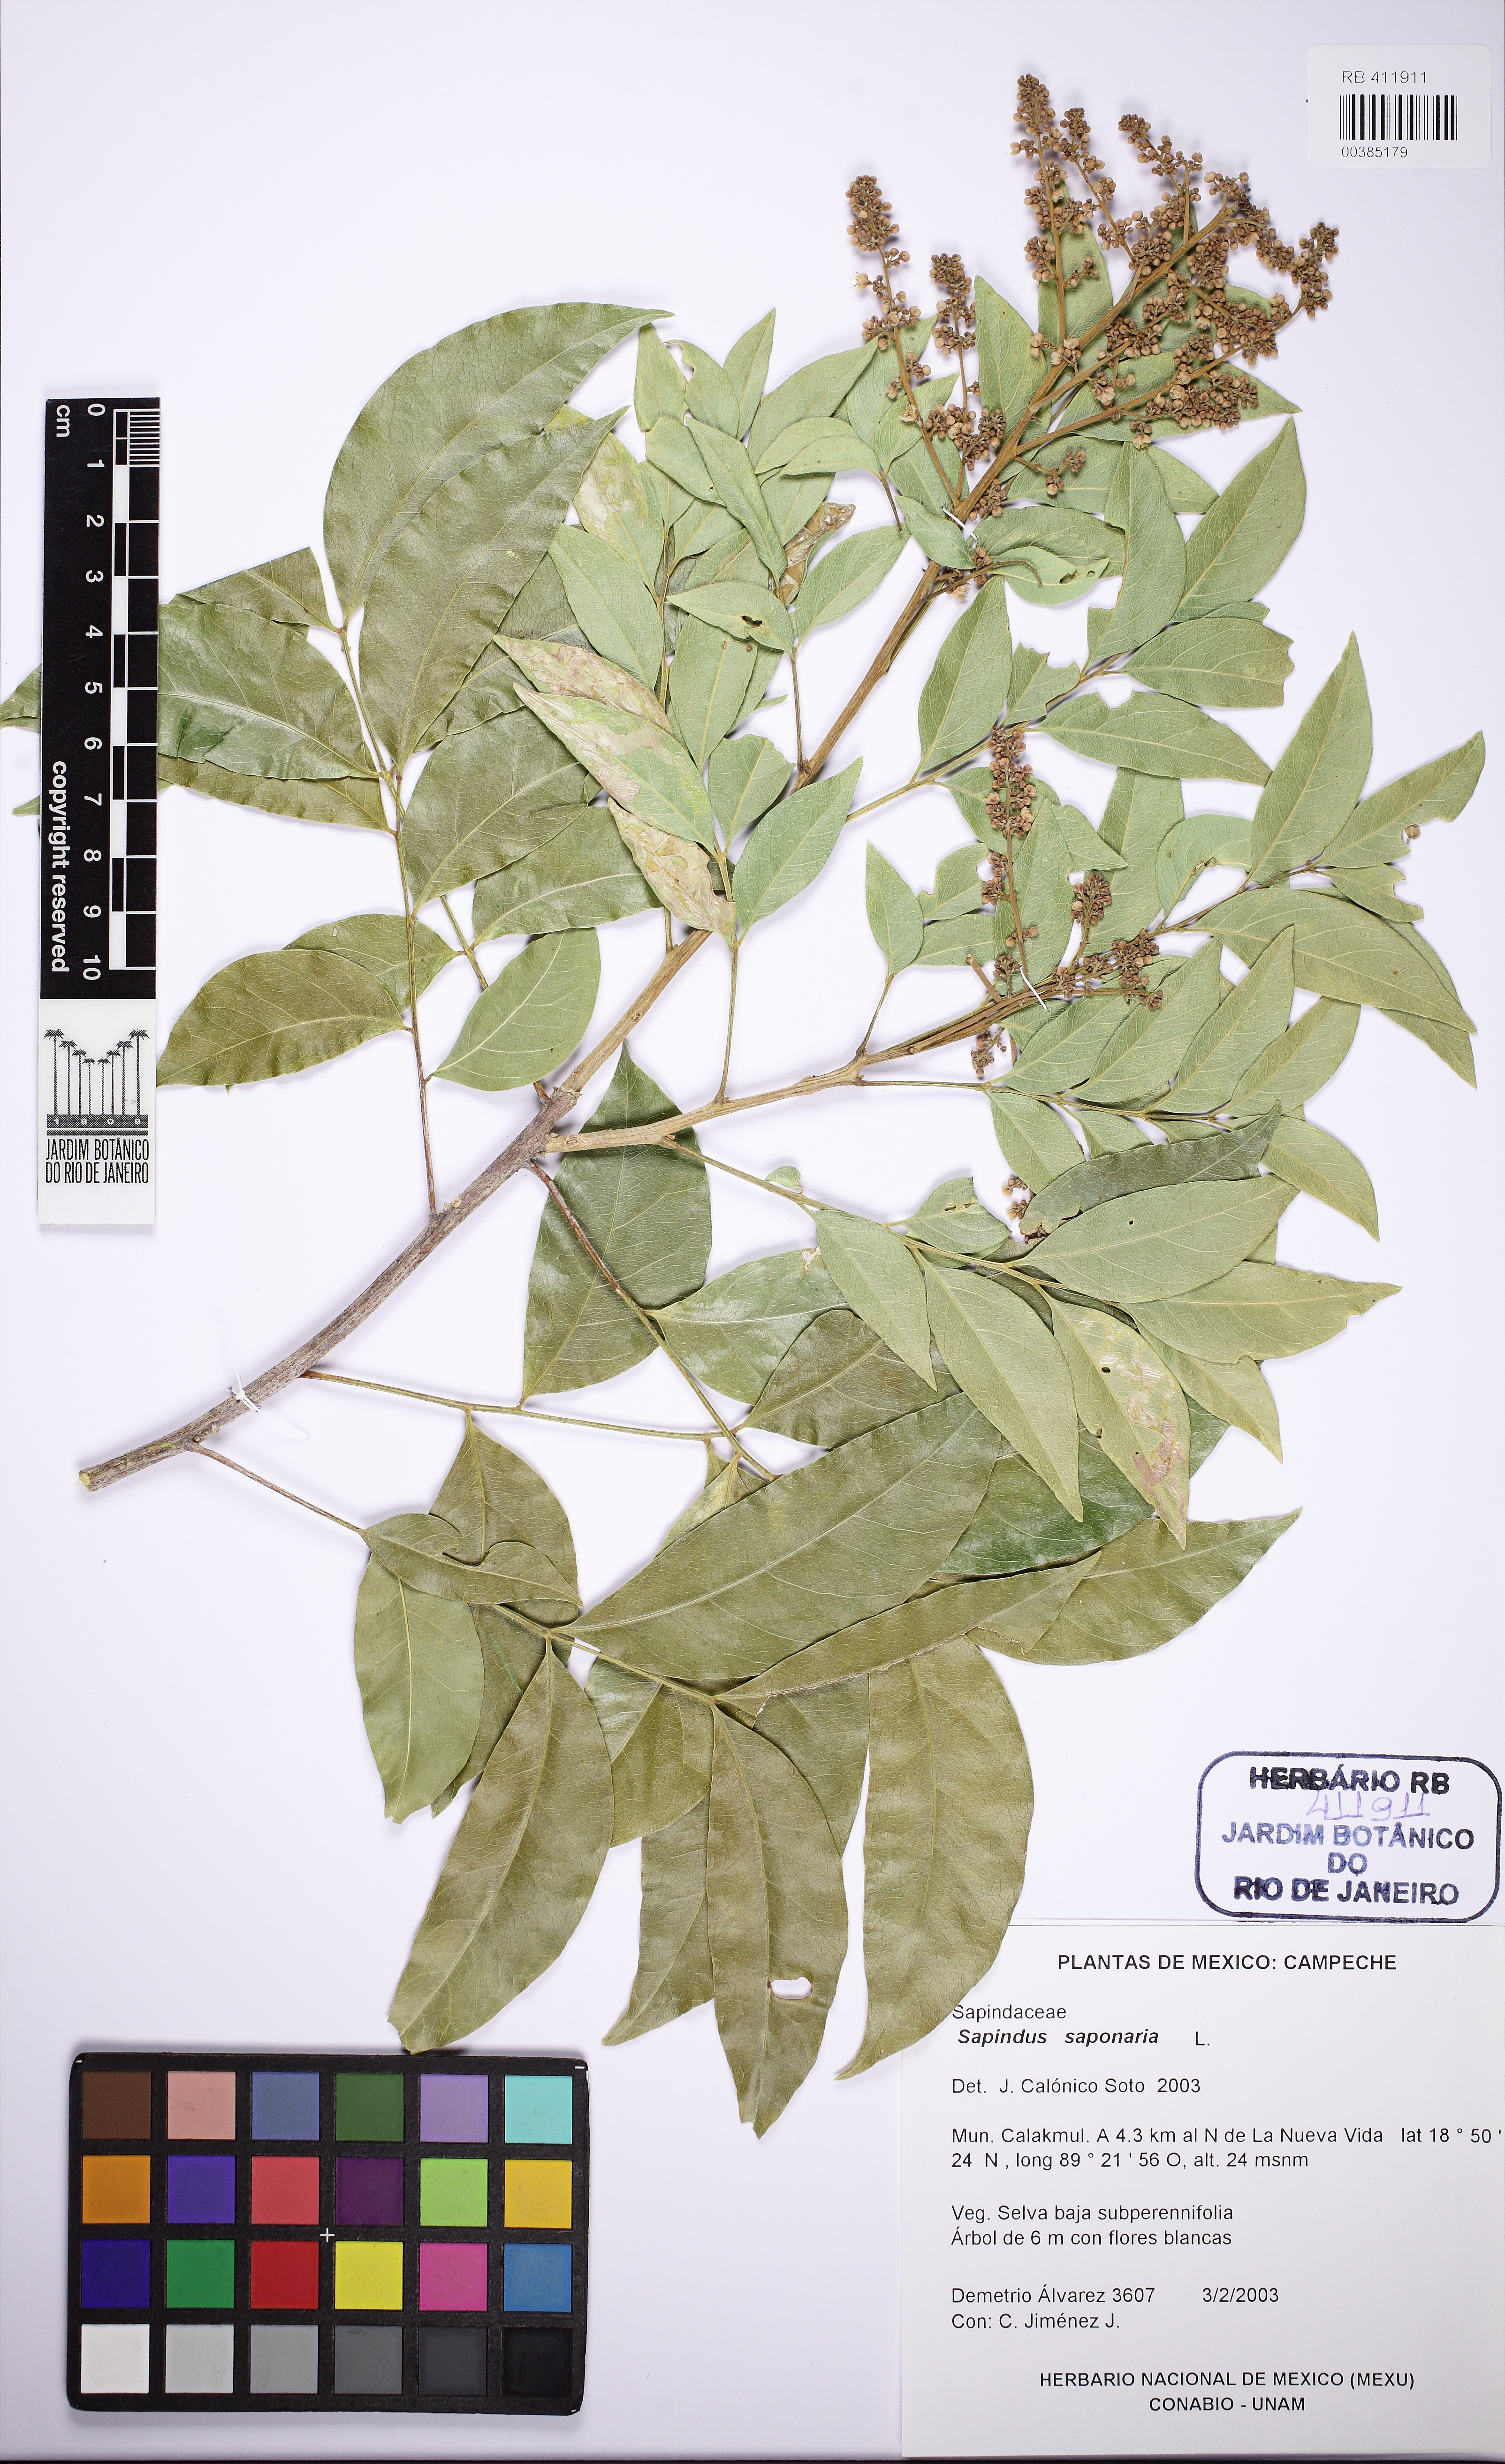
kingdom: Plantae
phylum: Tracheophyta
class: Magnoliopsida
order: Sapindales
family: Sapindaceae
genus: Sapindus
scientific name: Sapindus saponaria
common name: Wingleaf soapberry
